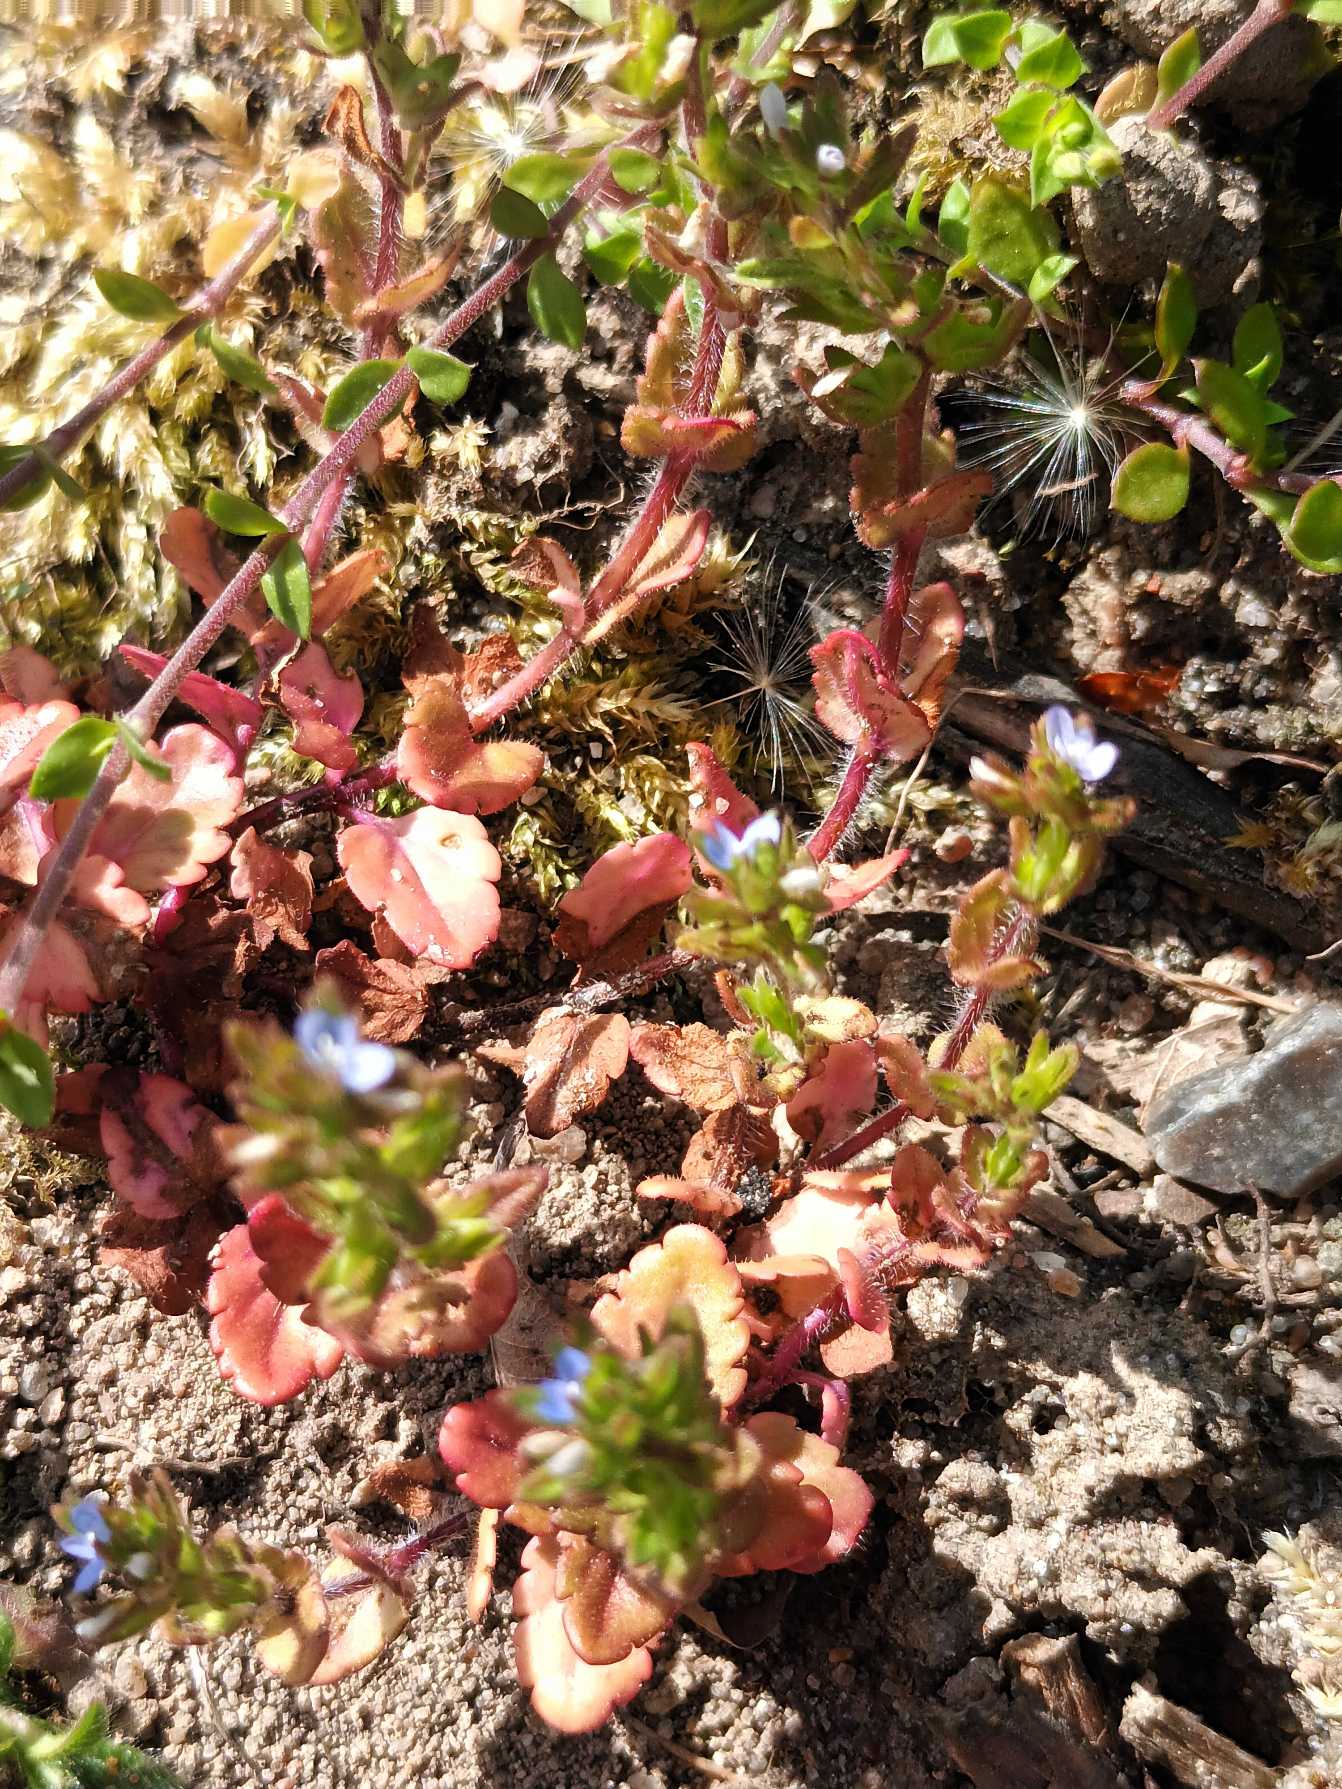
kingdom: Plantae
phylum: Tracheophyta
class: Magnoliopsida
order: Lamiales
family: Plantaginaceae
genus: Veronica
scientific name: Veronica arvensis
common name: Mark-ærenpris
